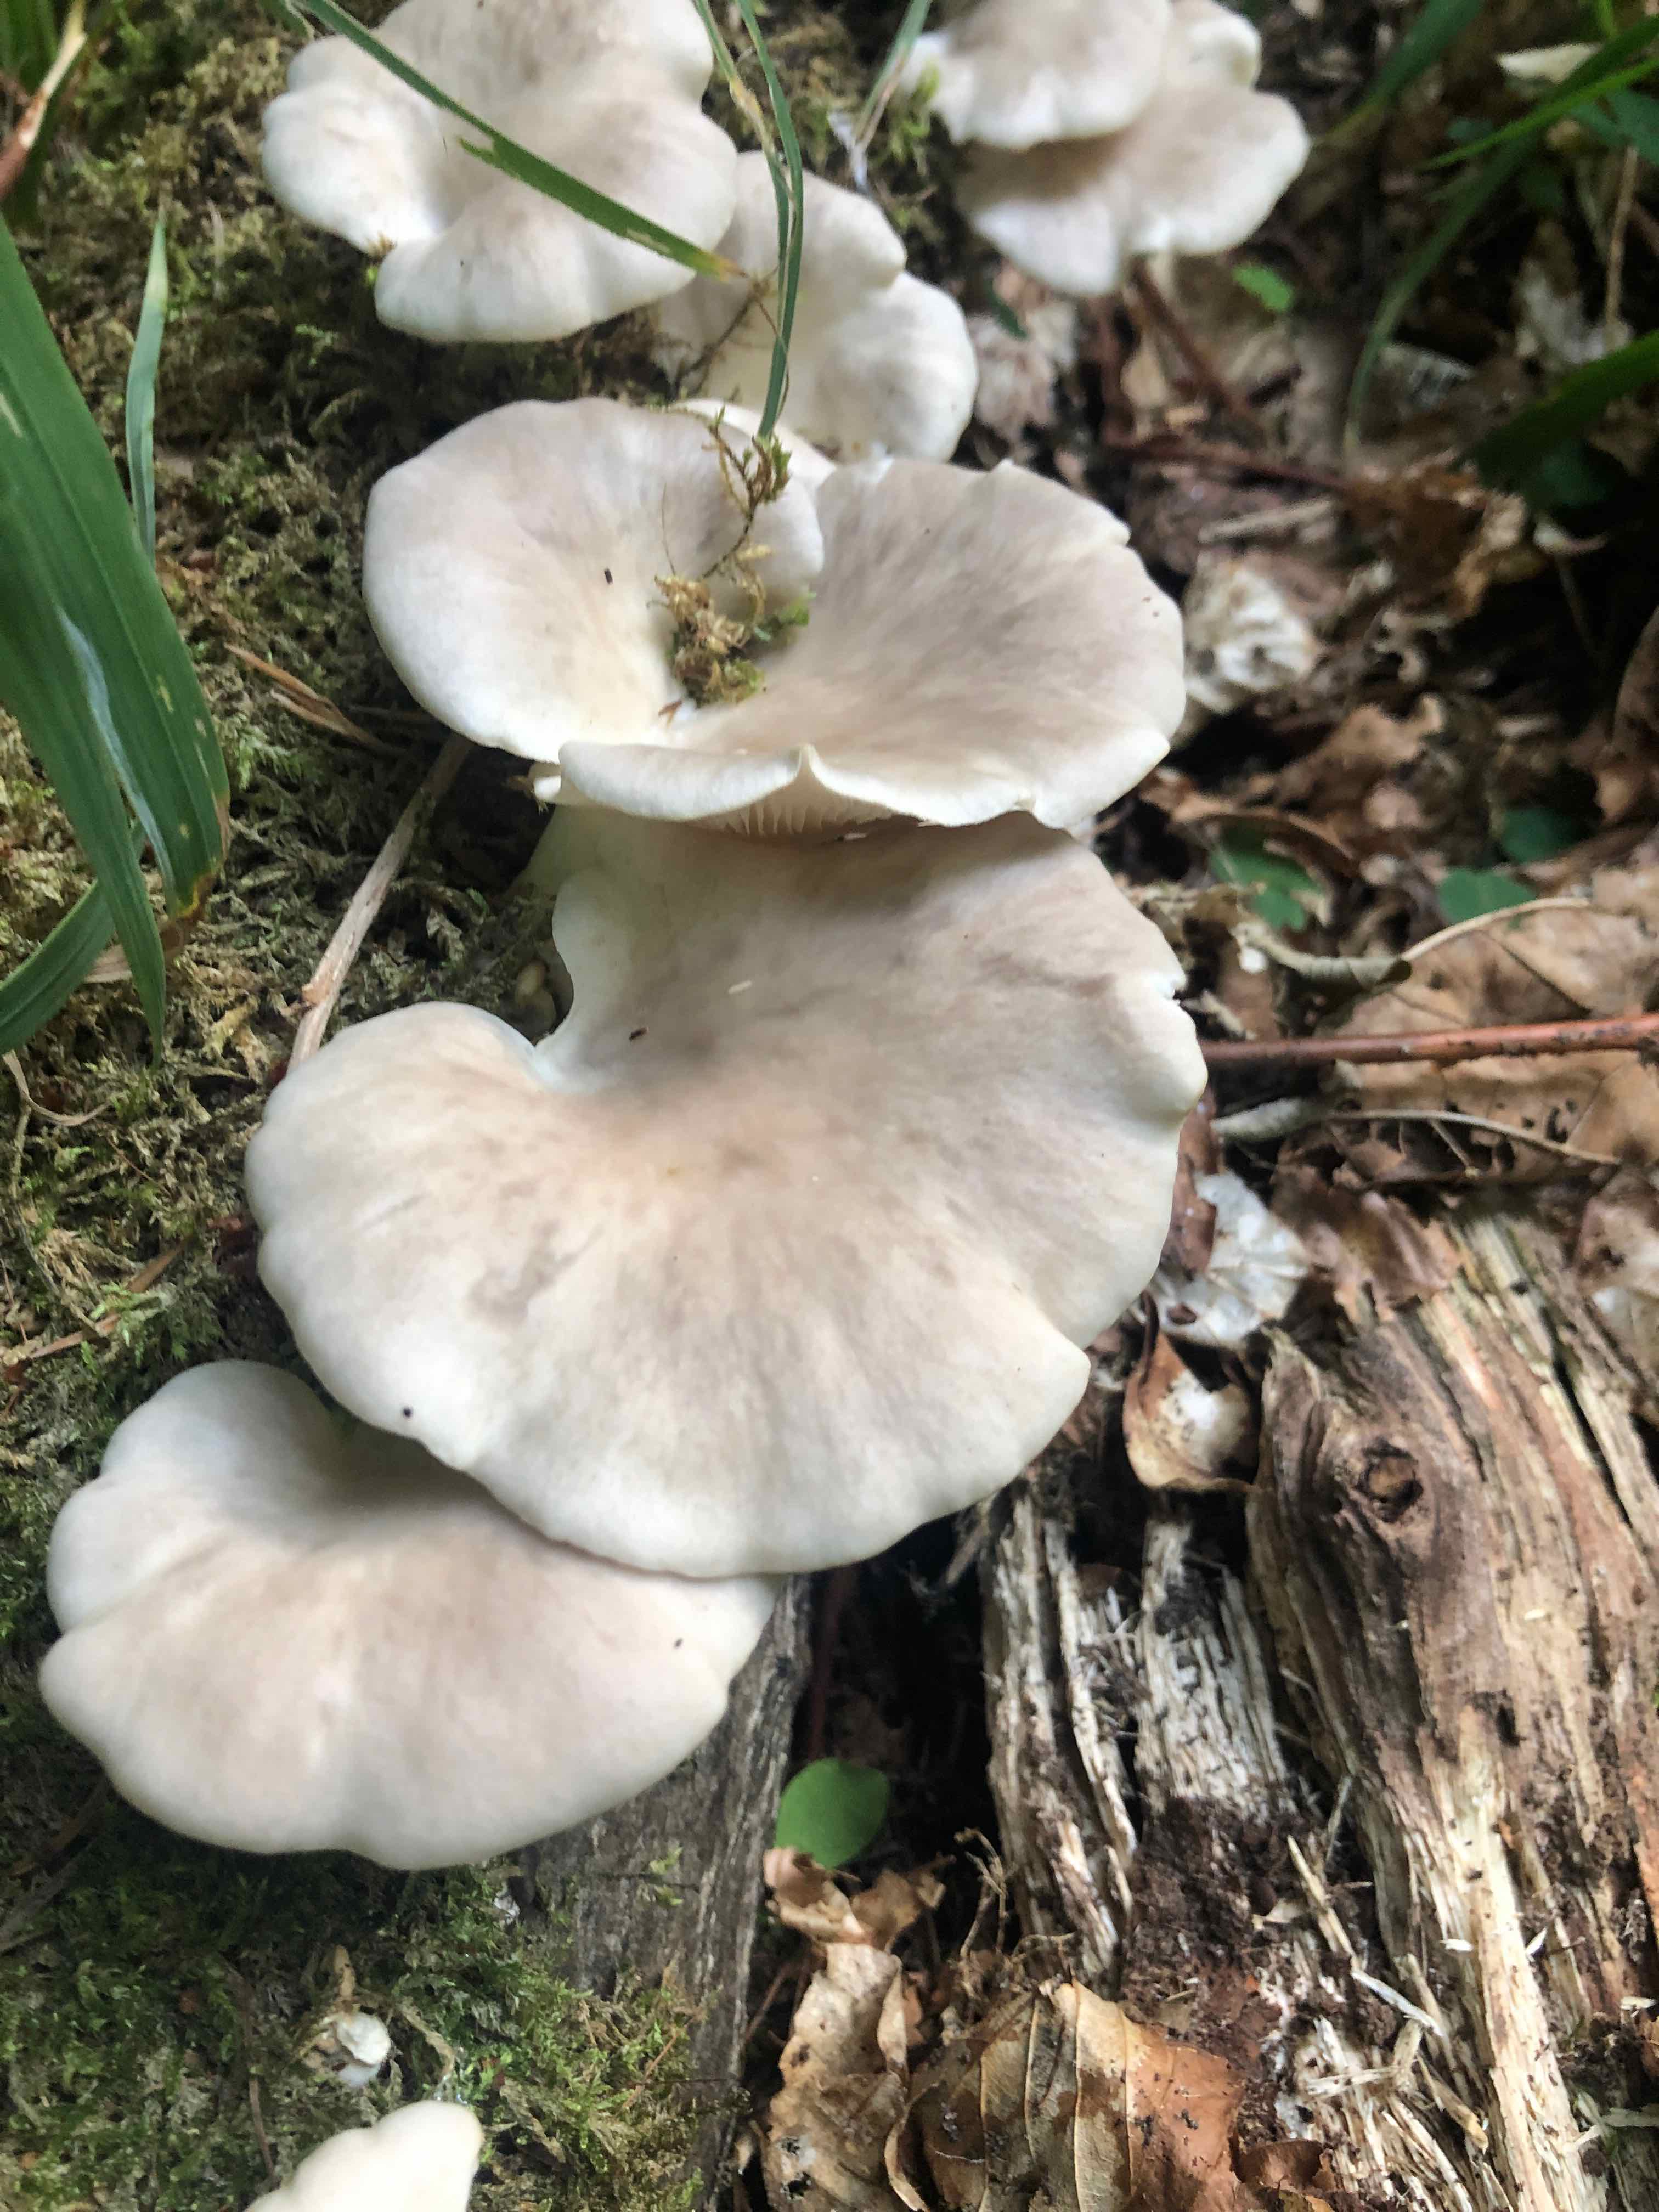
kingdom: Fungi
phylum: Basidiomycota
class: Agaricomycetes
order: Agaricales
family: Pleurotaceae
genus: Pleurotus
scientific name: Pleurotus pulmonarius
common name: sommer-østershat
